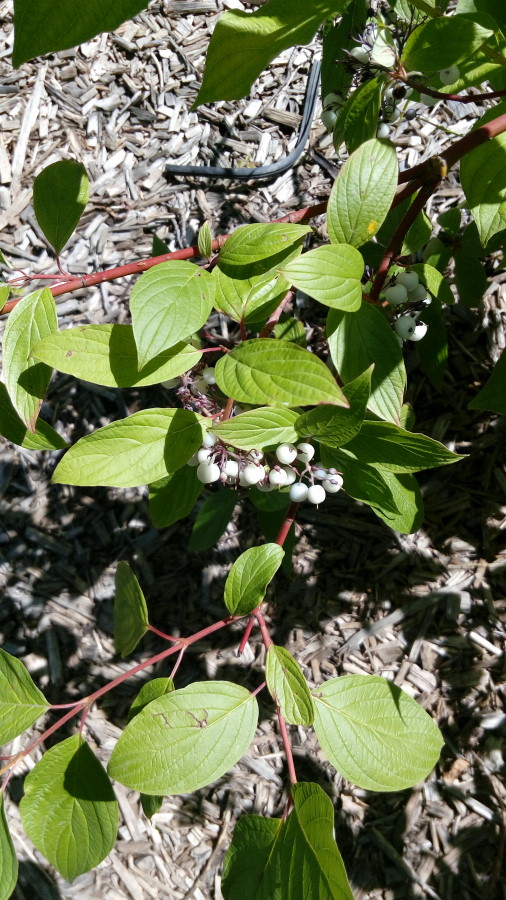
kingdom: Plantae
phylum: Tracheophyta
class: Magnoliopsida
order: Cornales
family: Cornaceae
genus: Cornus
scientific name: Cornus alba
